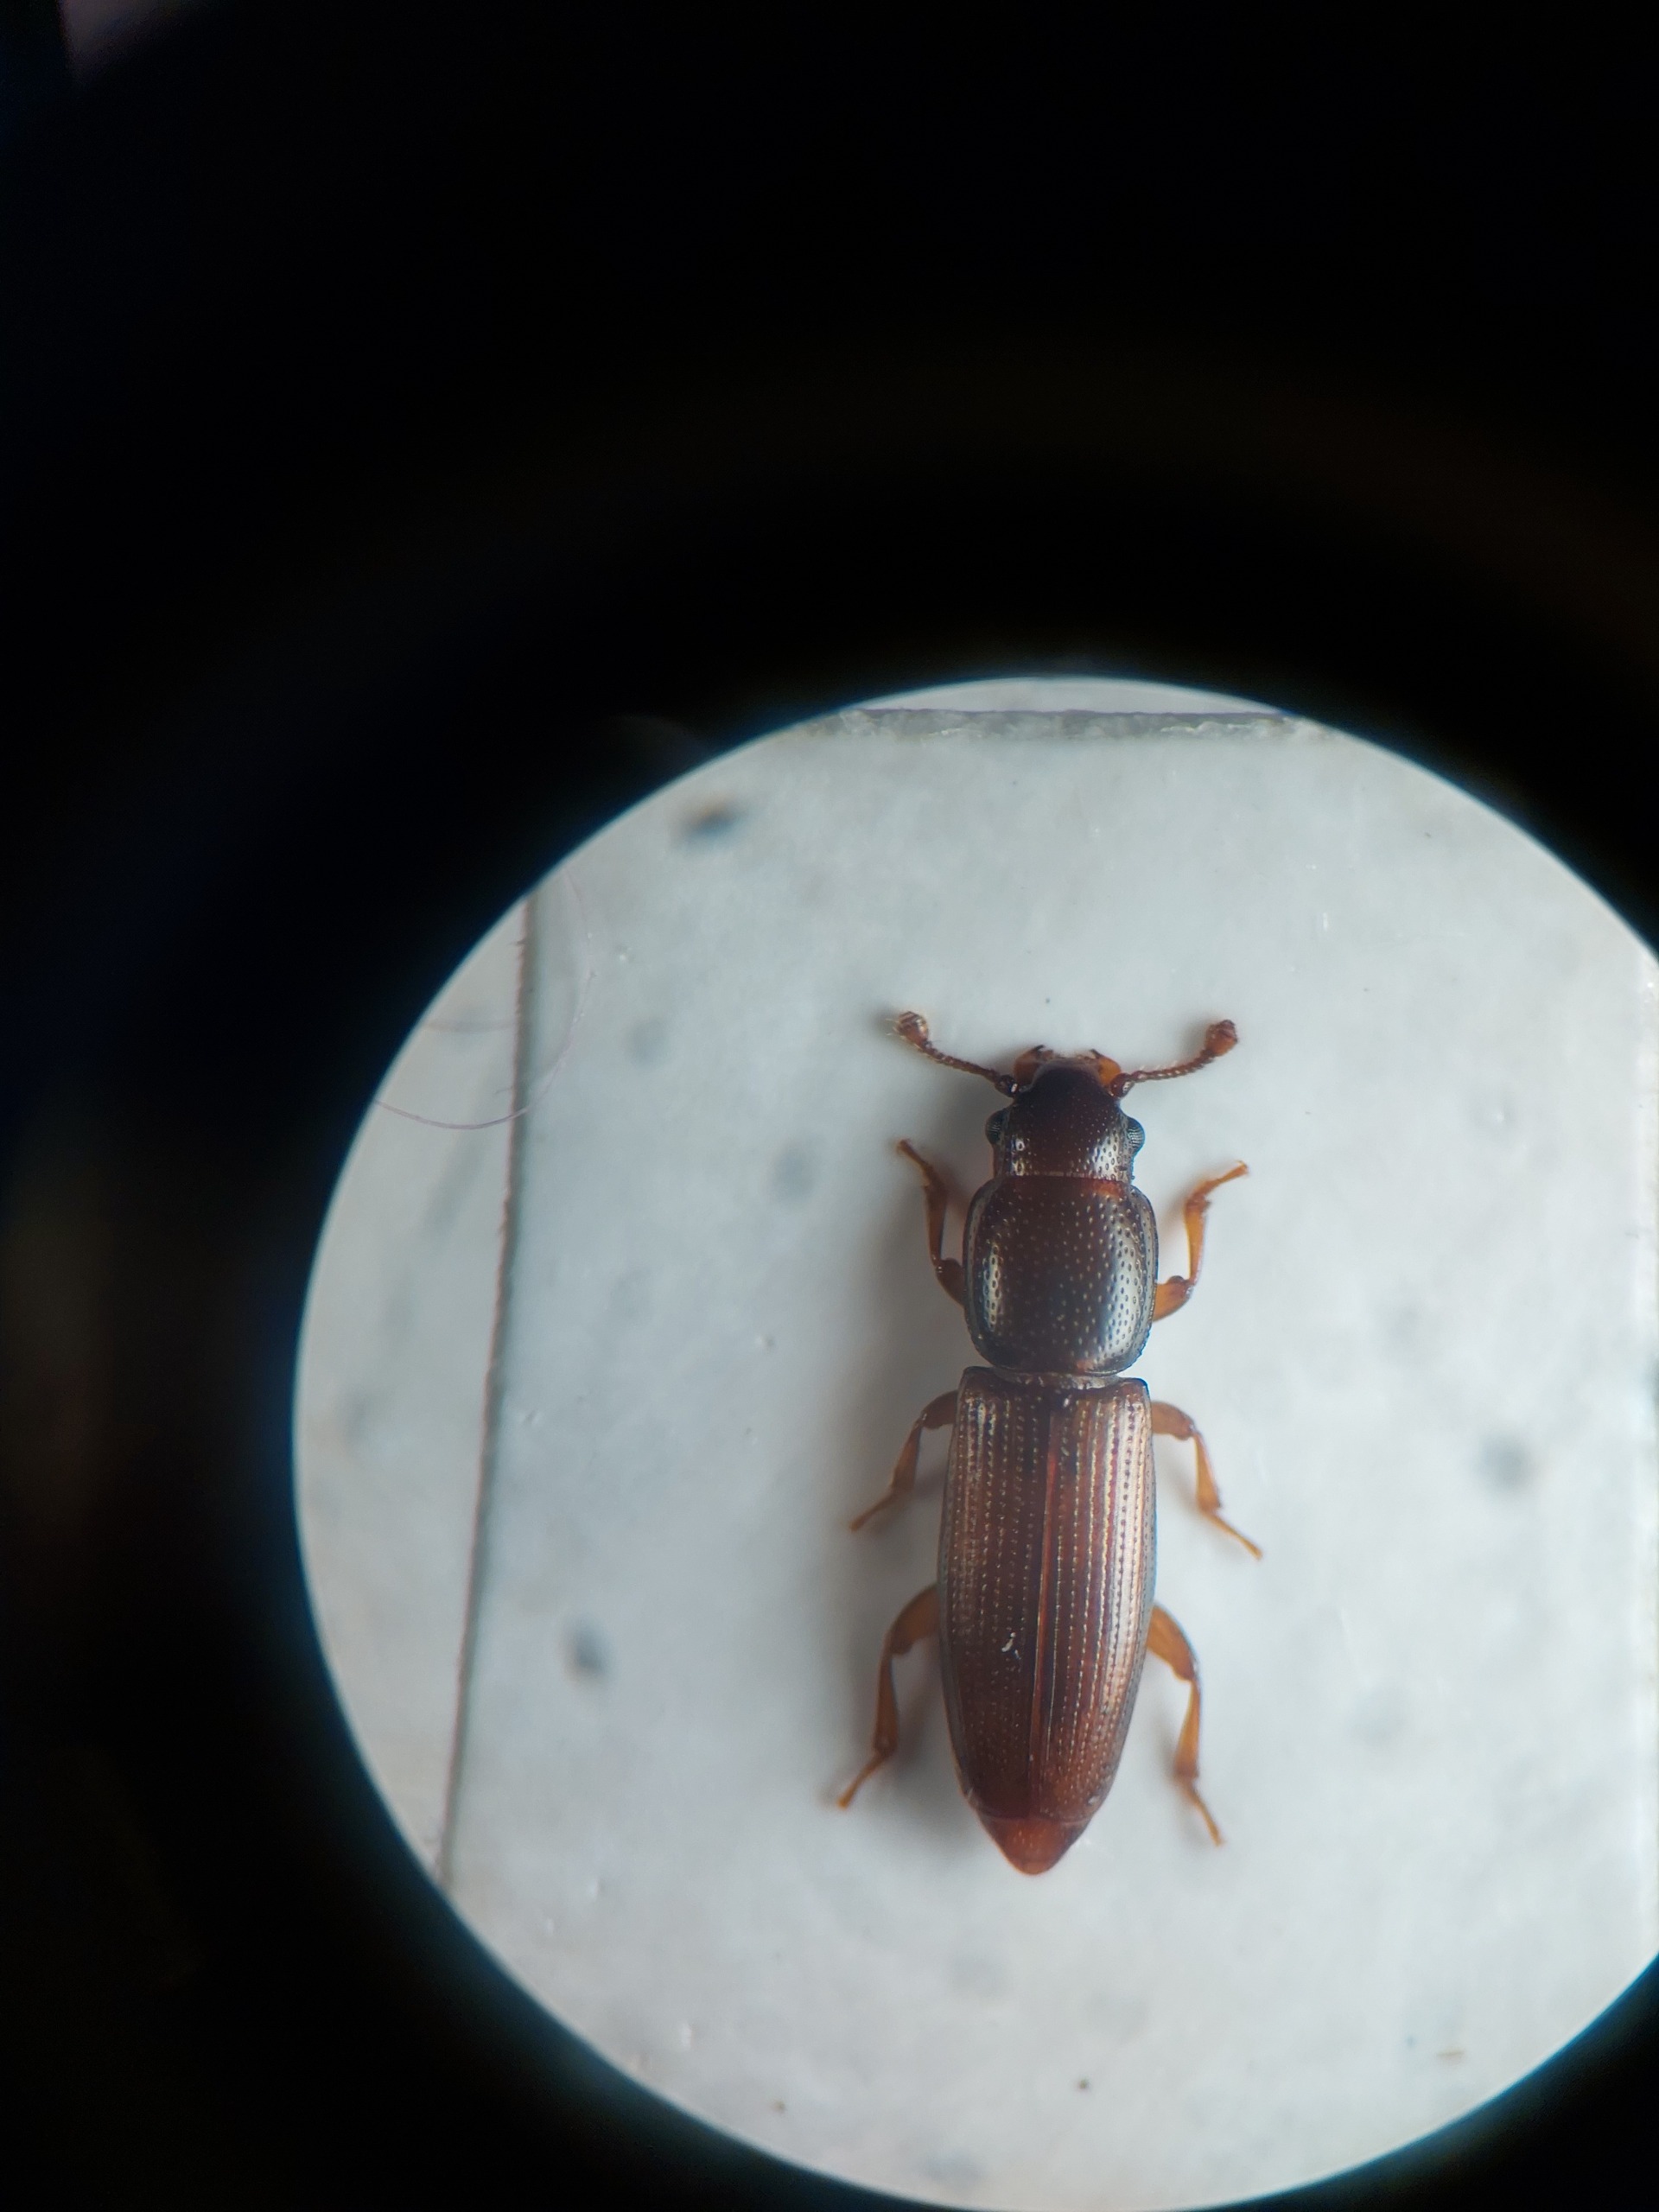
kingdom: Animalia
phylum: Arthropoda
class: Insecta
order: Coleoptera
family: Monotomidae
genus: Rhizophagus
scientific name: Rhizophagus brancsiki
